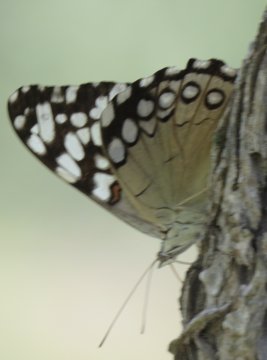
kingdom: Animalia
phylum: Arthropoda
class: Insecta
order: Lepidoptera
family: Nymphalidae
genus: Hamadryas
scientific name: Hamadryas guatemalena
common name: Guatemalan Cracker
